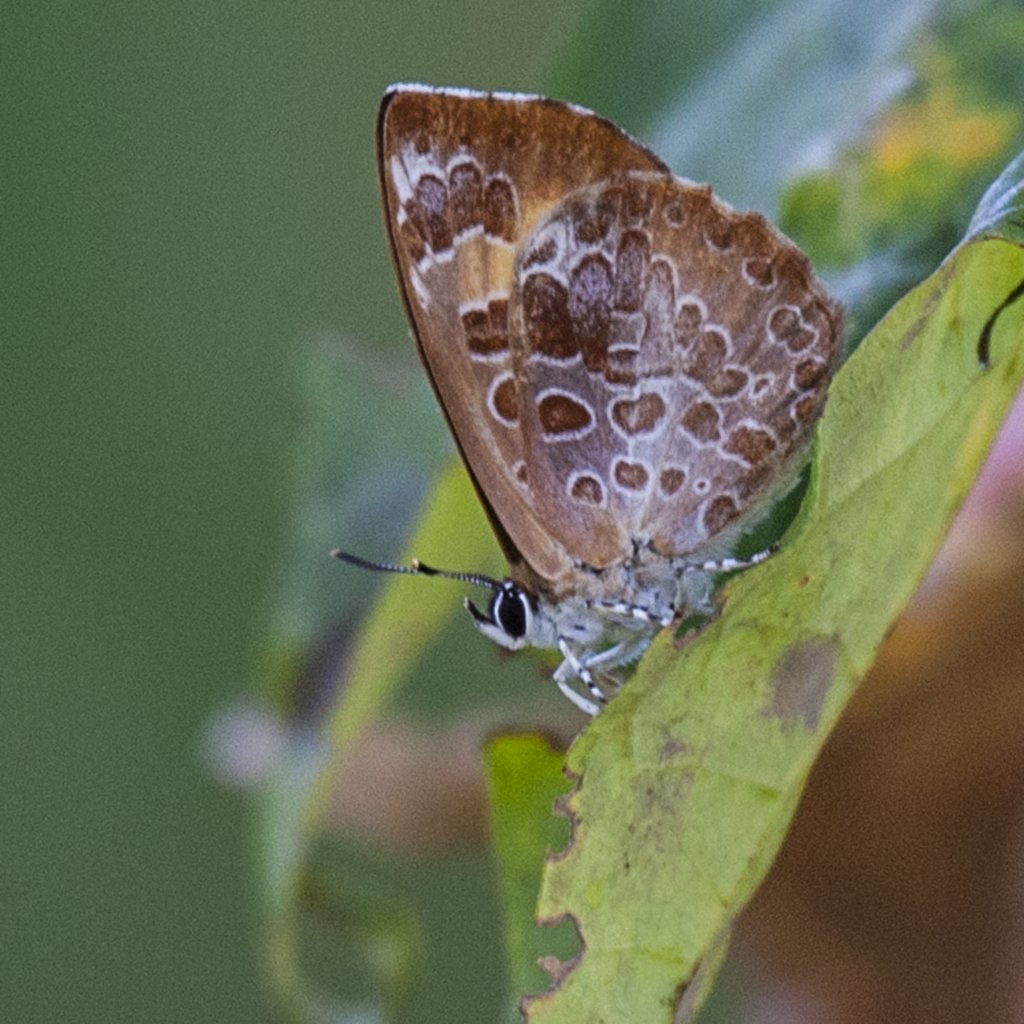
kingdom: Animalia
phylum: Arthropoda
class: Insecta
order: Lepidoptera
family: Lycaenidae
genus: Feniseca
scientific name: Feniseca tarquinius
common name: Harvester
